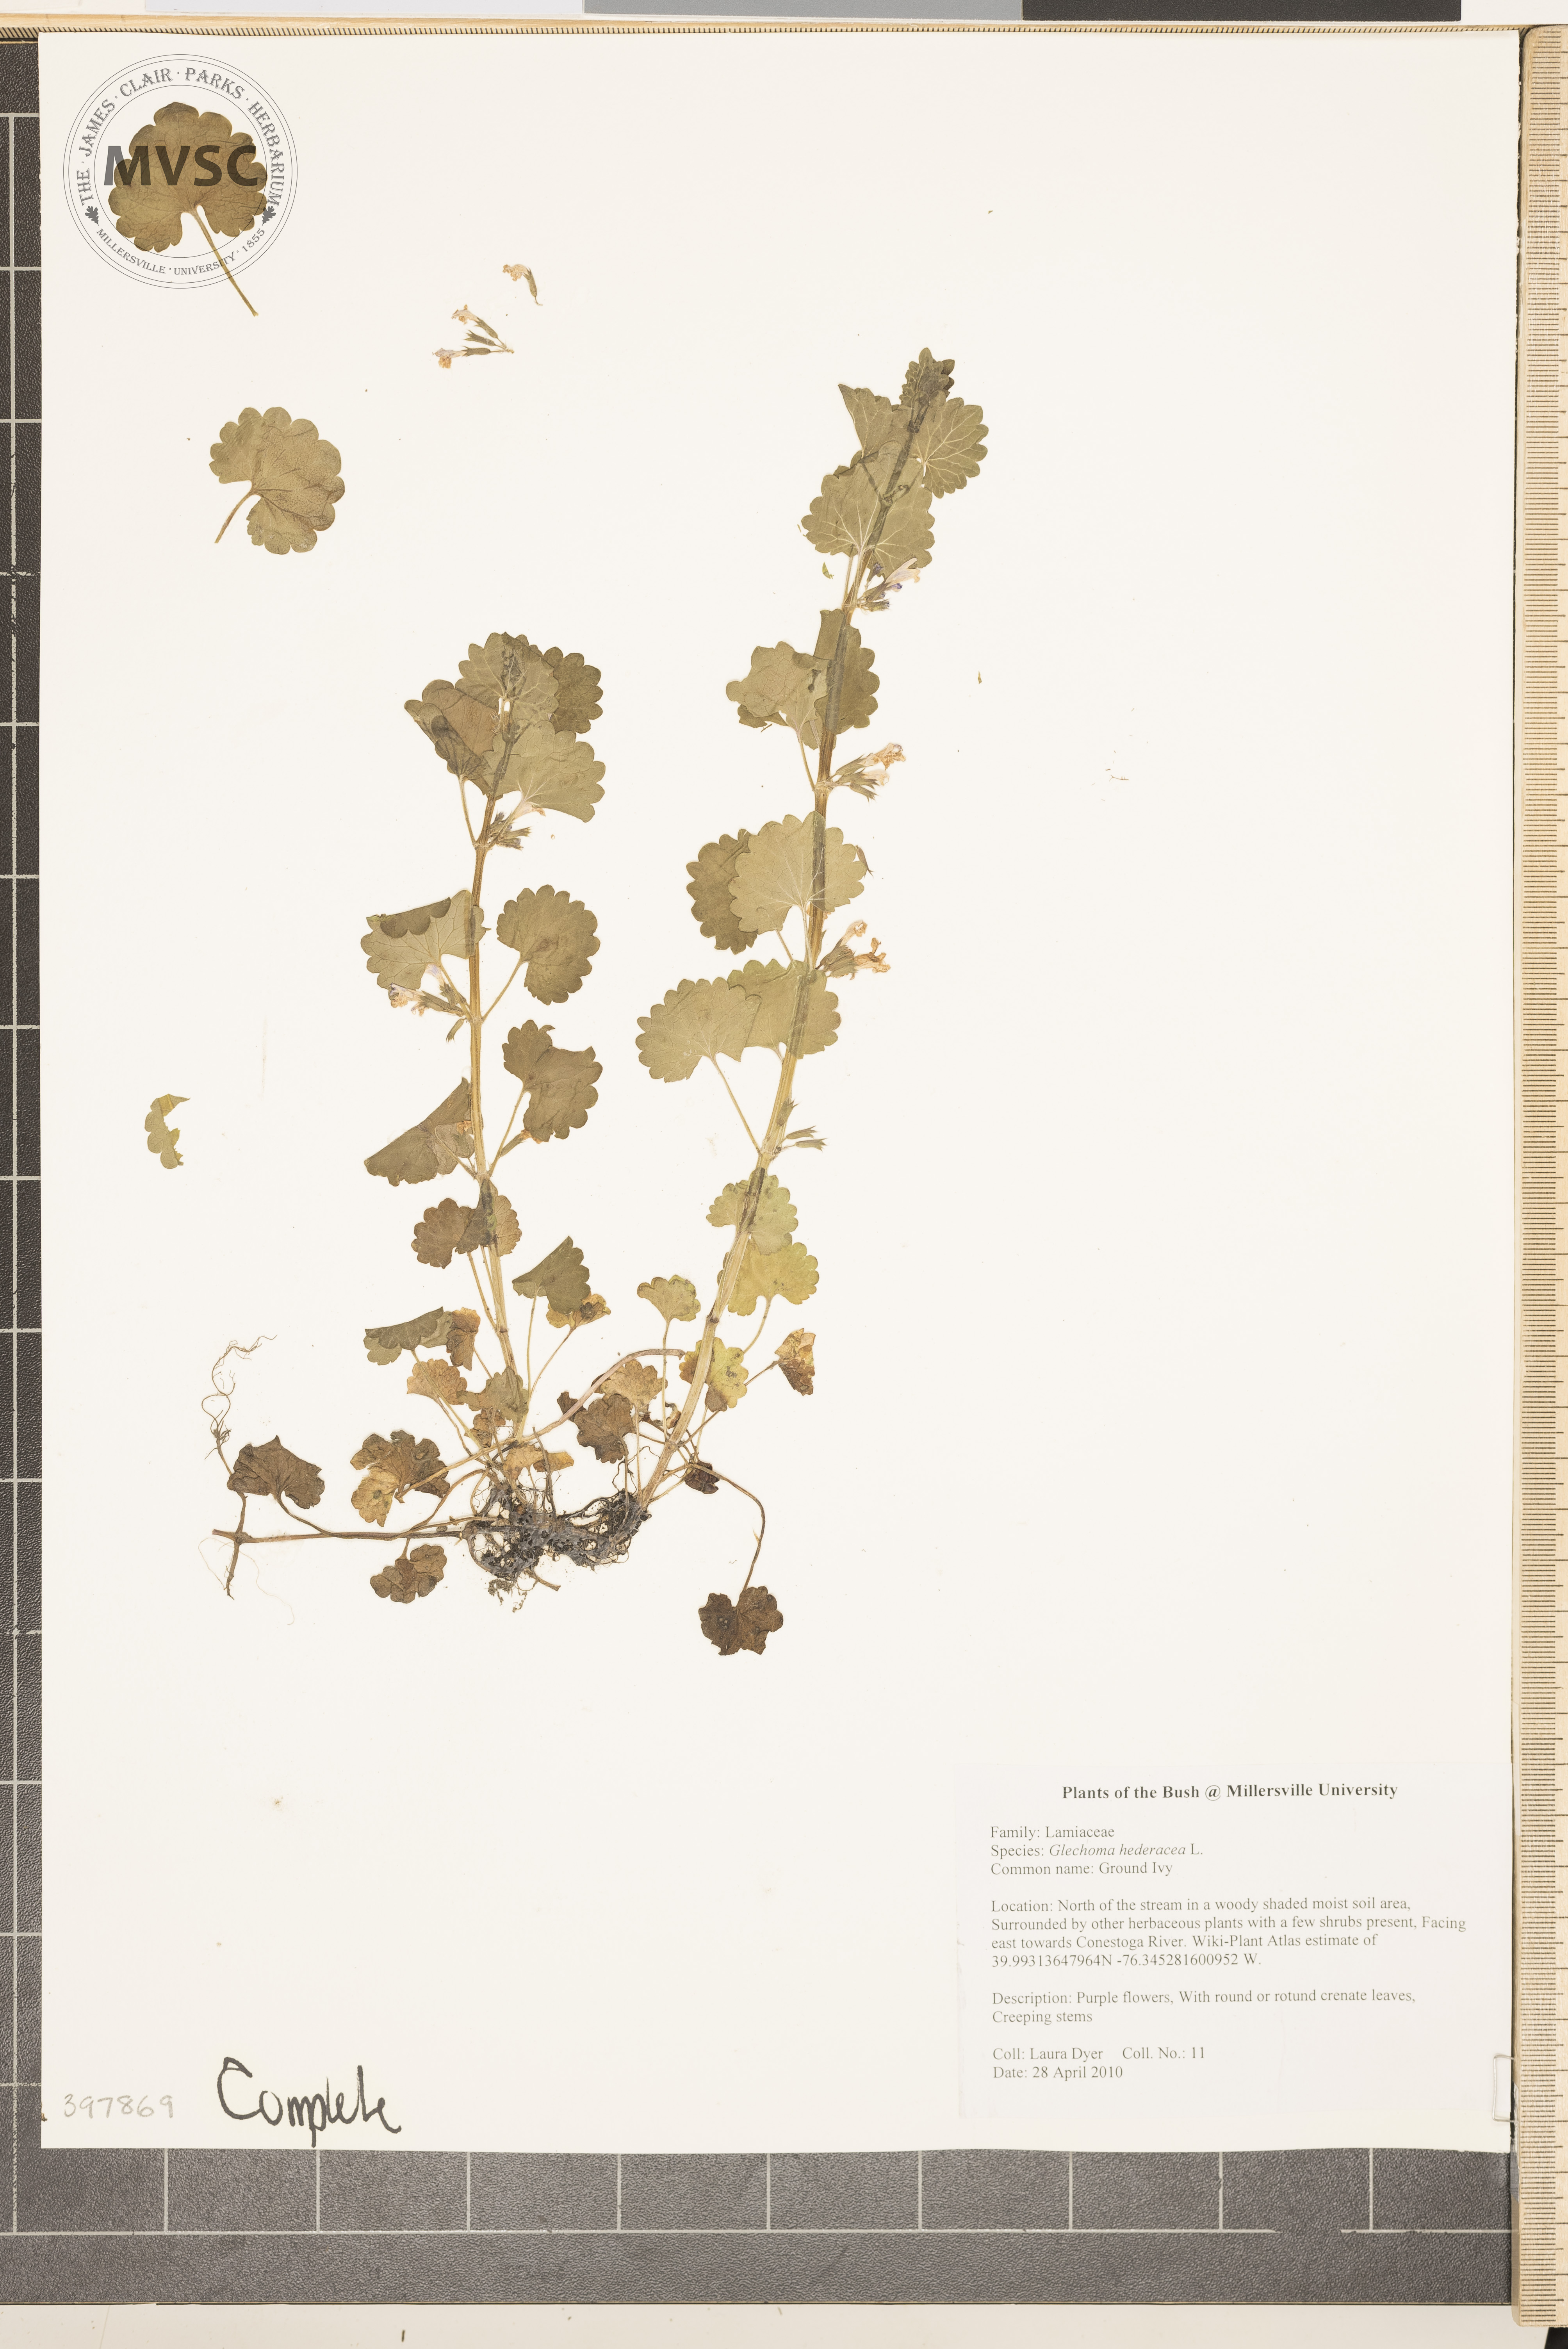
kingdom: Plantae
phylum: Tracheophyta
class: Magnoliopsida
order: Lamiales
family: Lamiaceae
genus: Glechoma
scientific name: Glechoma hederacea
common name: Gill-over-the-ground
